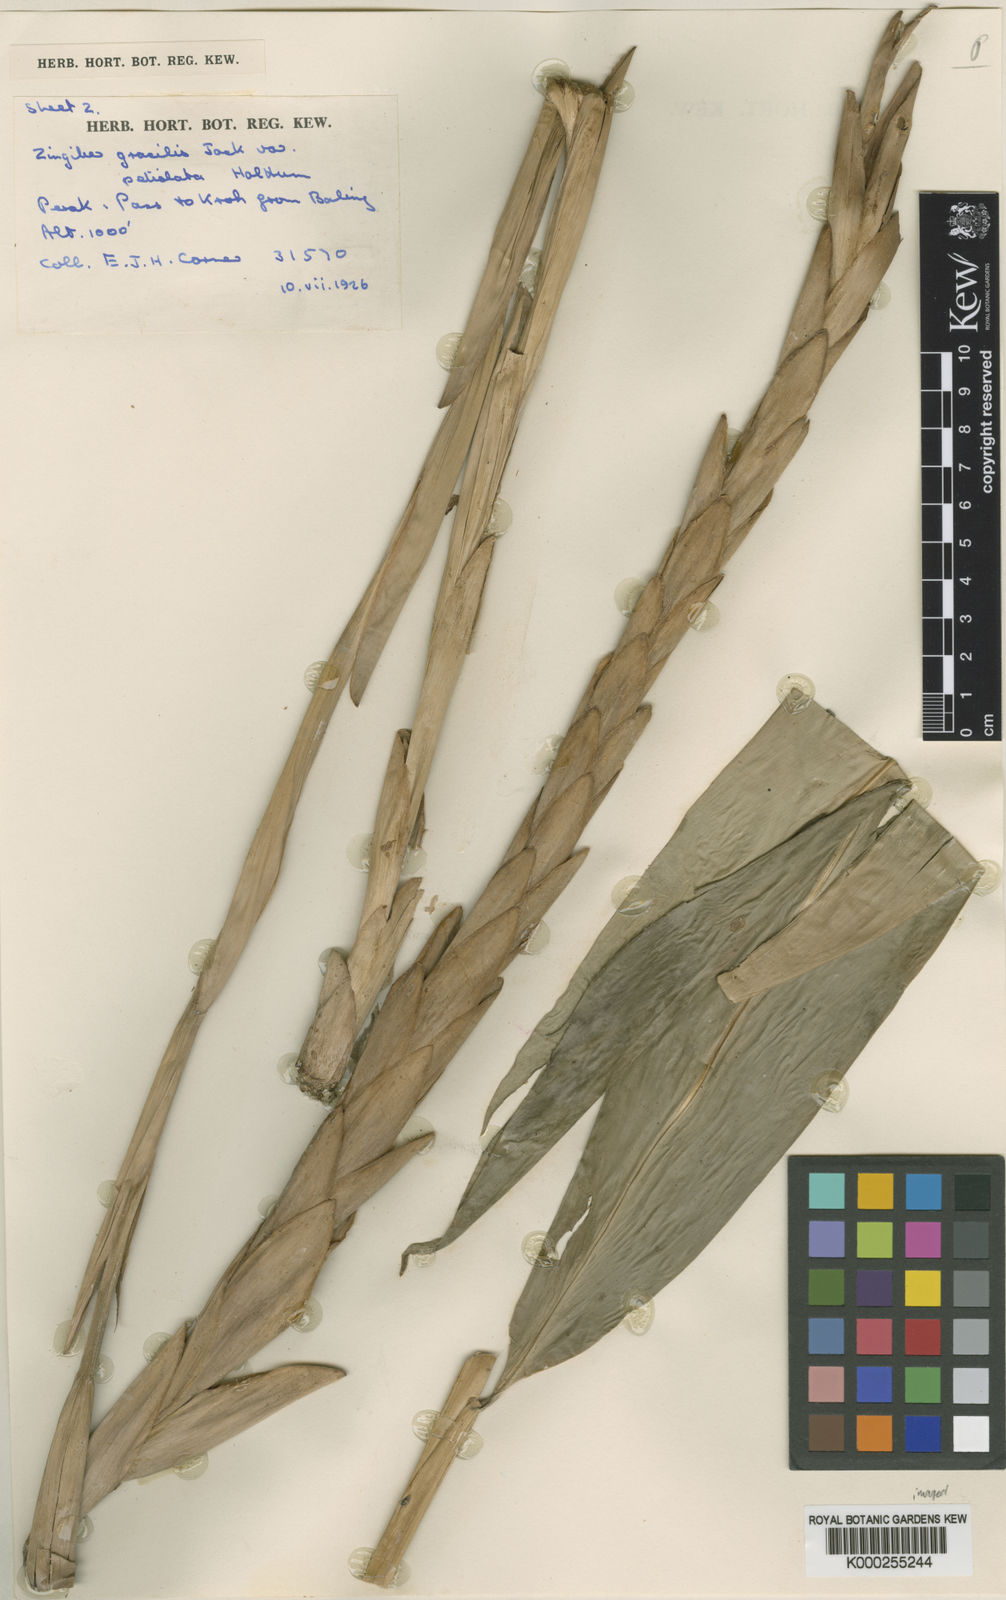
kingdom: Plantae
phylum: Tracheophyta
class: Liliopsida
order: Zingiberales
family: Zingiberaceae
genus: Zingiber
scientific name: Zingiber gracile
